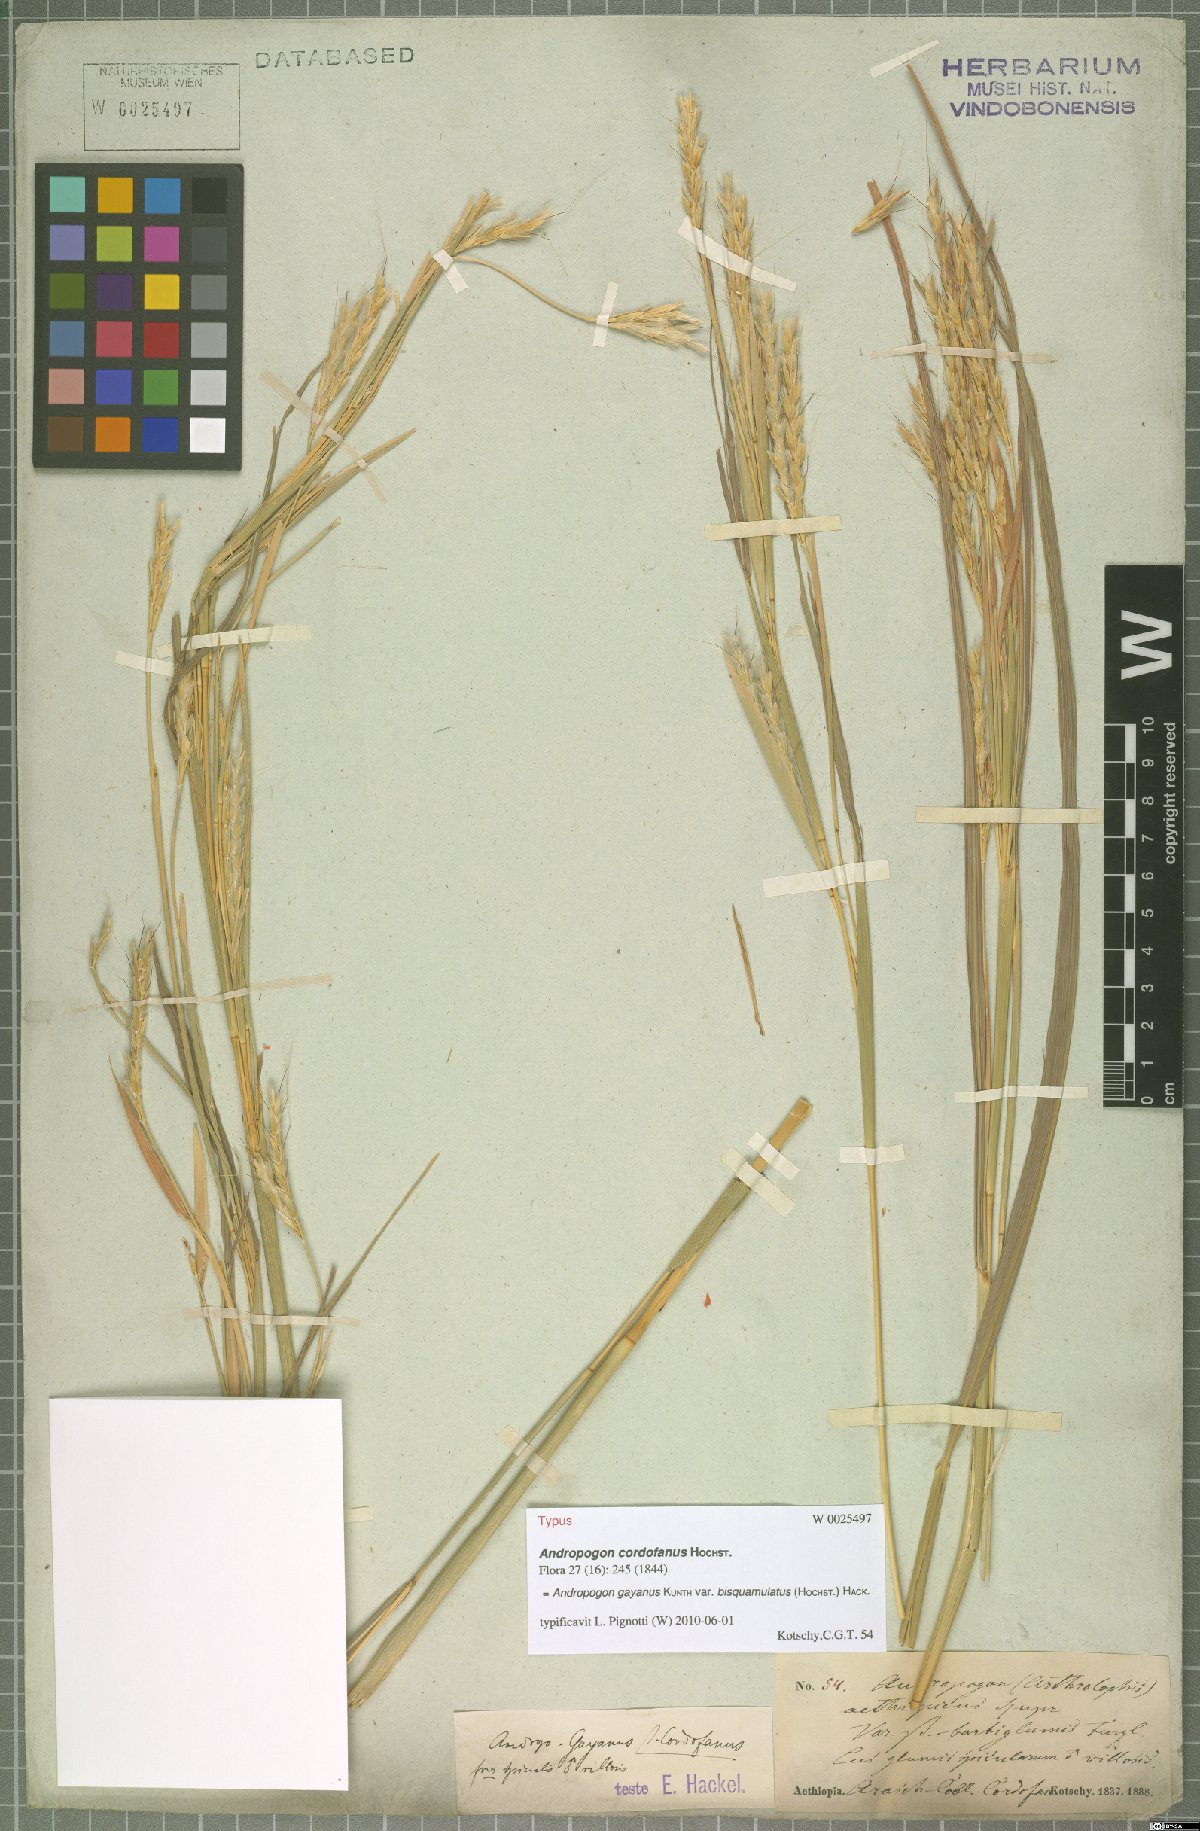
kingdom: Plantae
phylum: Tracheophyta
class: Liliopsida
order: Poales
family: Poaceae
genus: Andropogon
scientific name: Andropogon gayanus
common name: Tambuki grass
